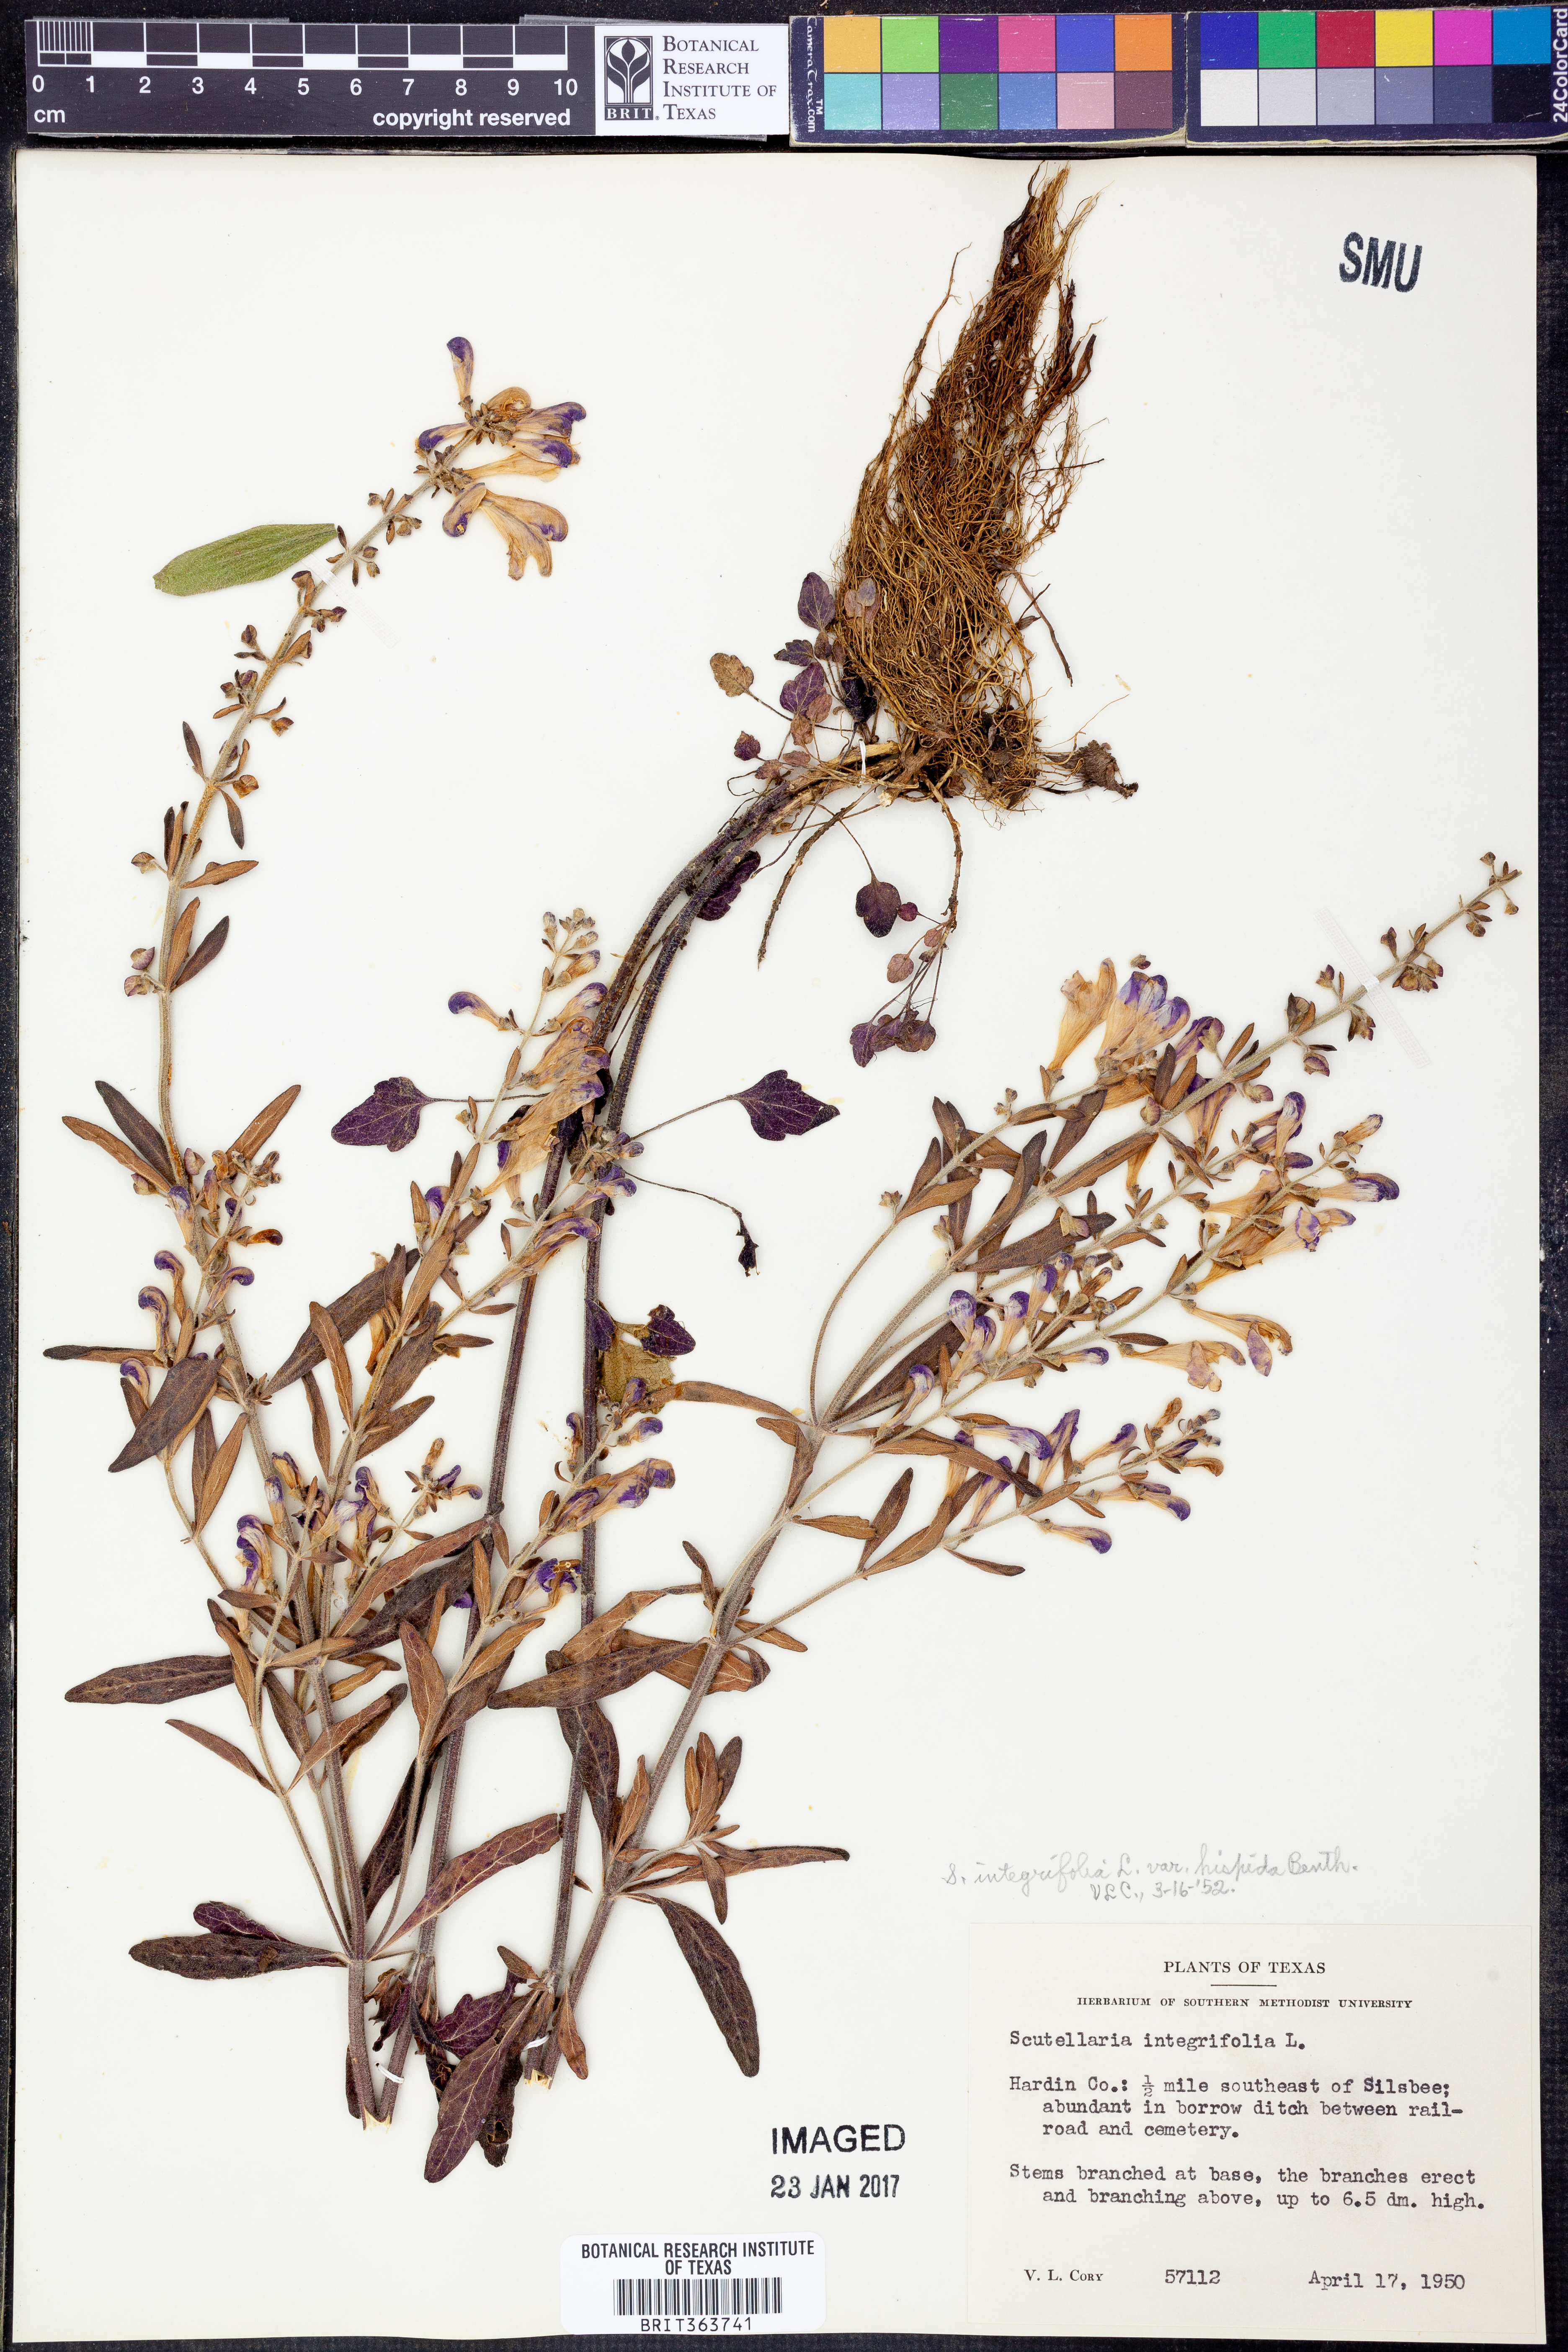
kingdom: Plantae
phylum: Tracheophyta
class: Magnoliopsida
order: Lamiales
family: Lamiaceae
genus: Scutellaria
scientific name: Scutellaria integrifolia
